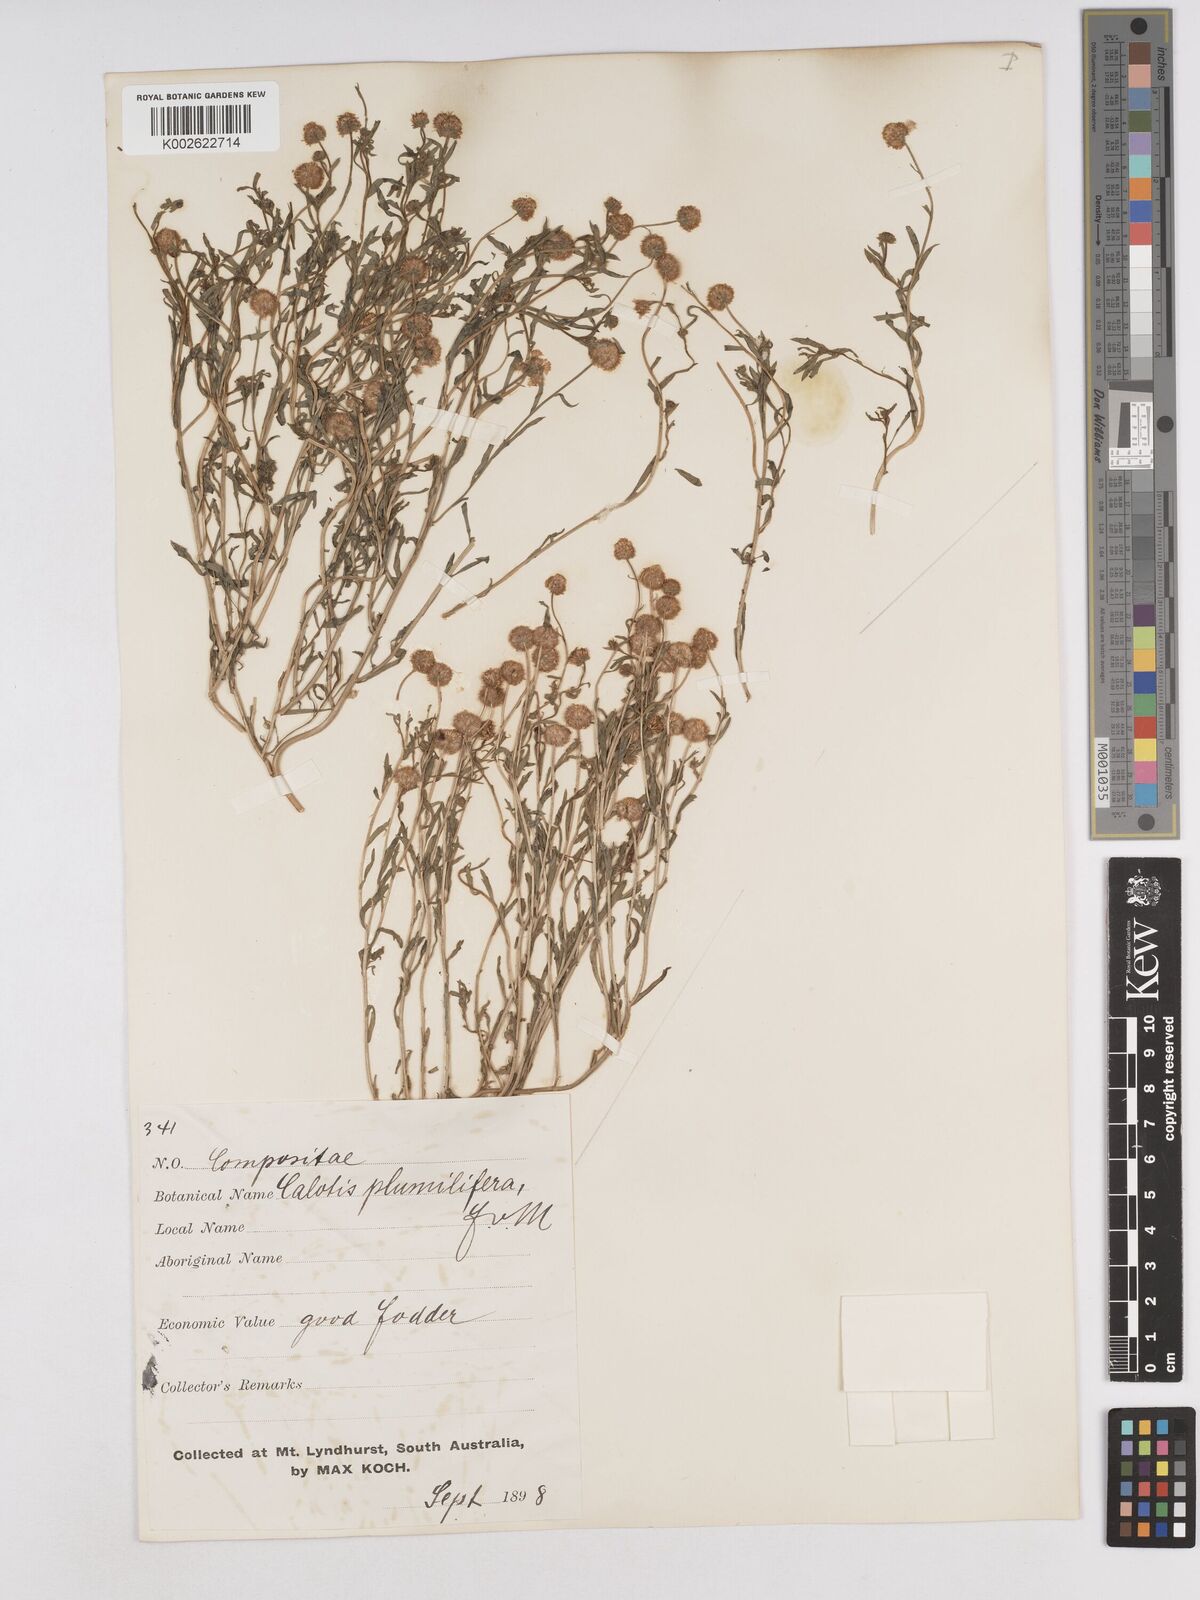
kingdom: Plantae
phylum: Tracheophyta
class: Magnoliopsida
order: Asterales
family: Asteraceae
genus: Calotis
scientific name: Calotis multicaulis
